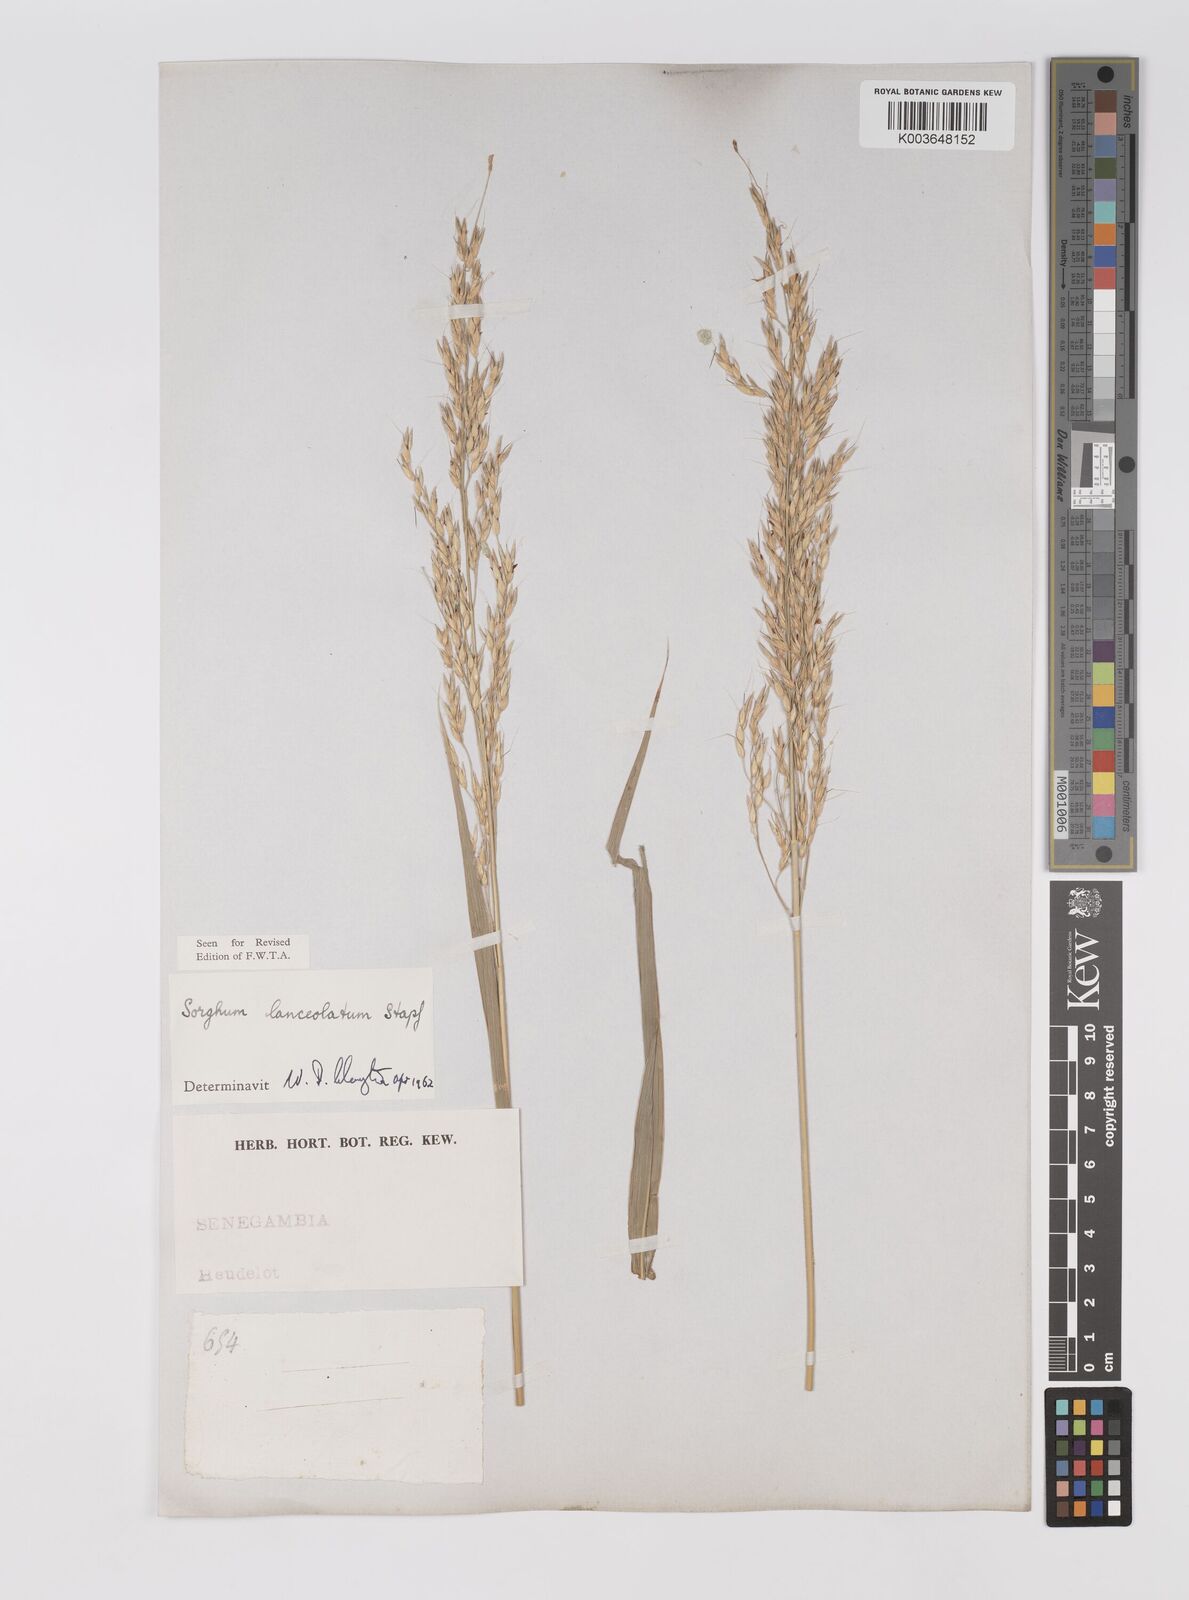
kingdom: Plantae
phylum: Tracheophyta
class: Liliopsida
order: Poales
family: Poaceae
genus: Sorghum
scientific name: Sorghum arundinaceum
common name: Sorghum
